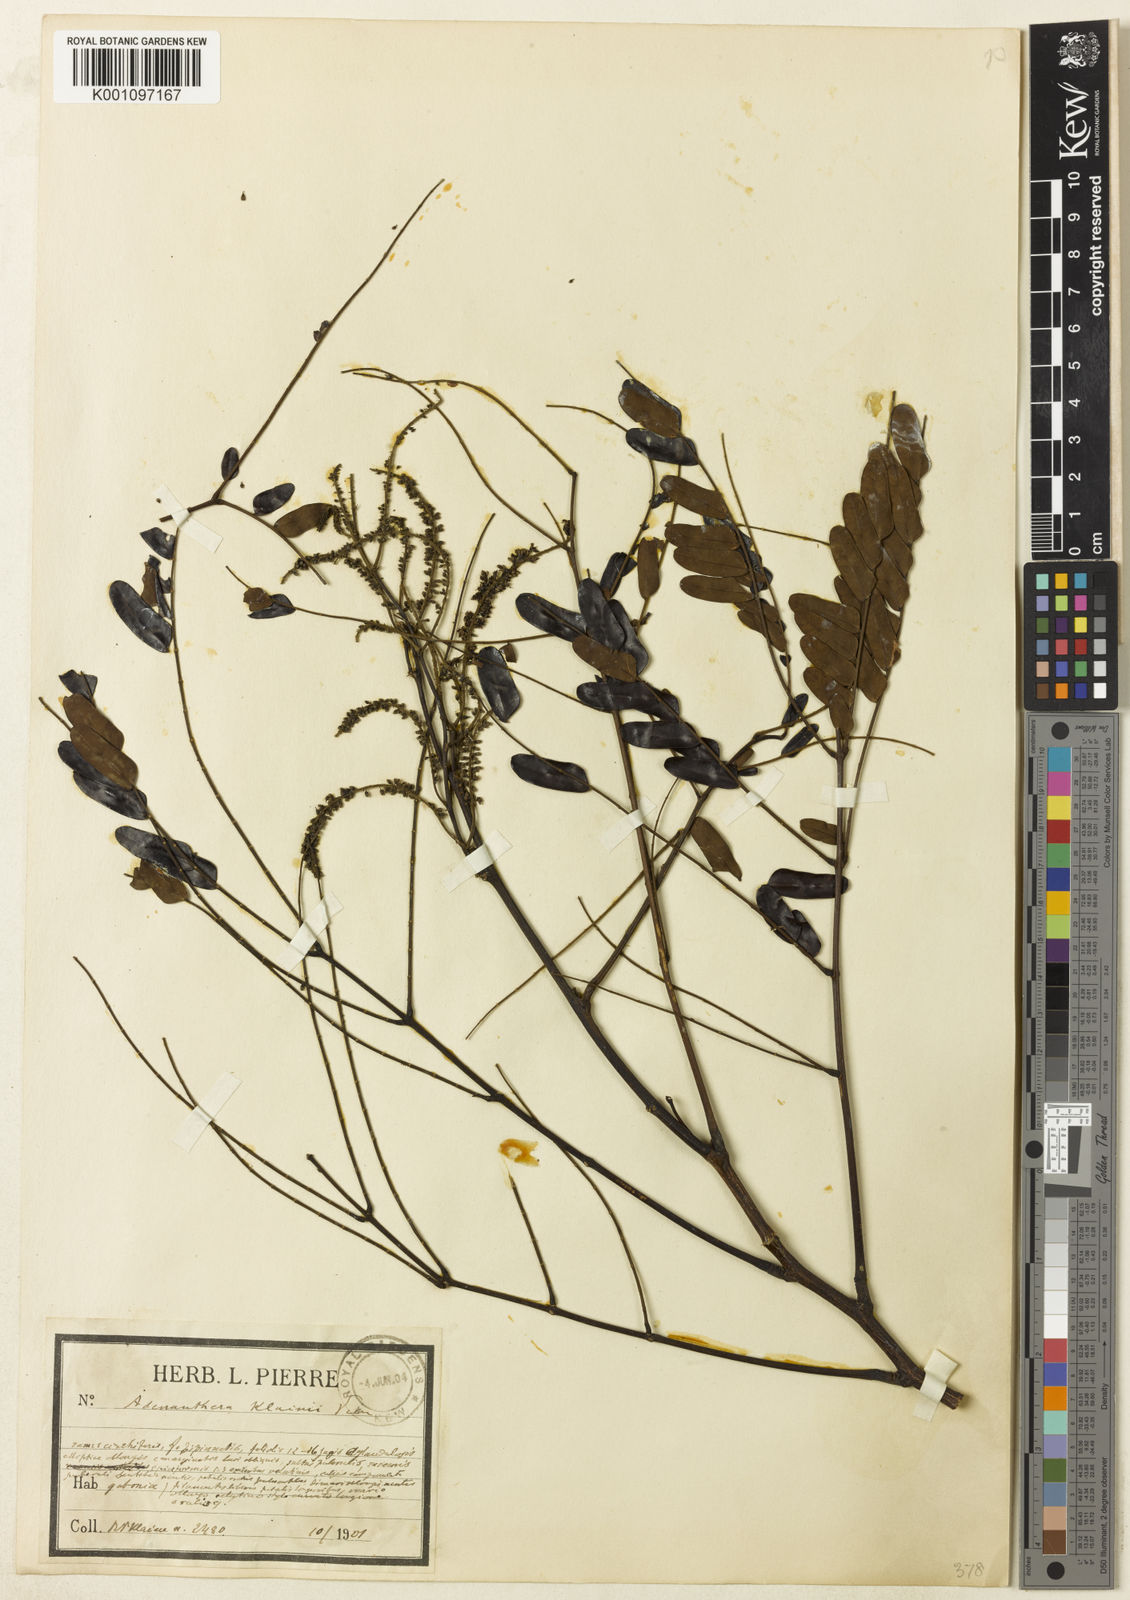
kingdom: Plantae
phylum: Tracheophyta
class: Magnoliopsida
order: Fabales
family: Fabaceae
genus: Pseudoprosopis
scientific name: Pseudoprosopis gilletii
